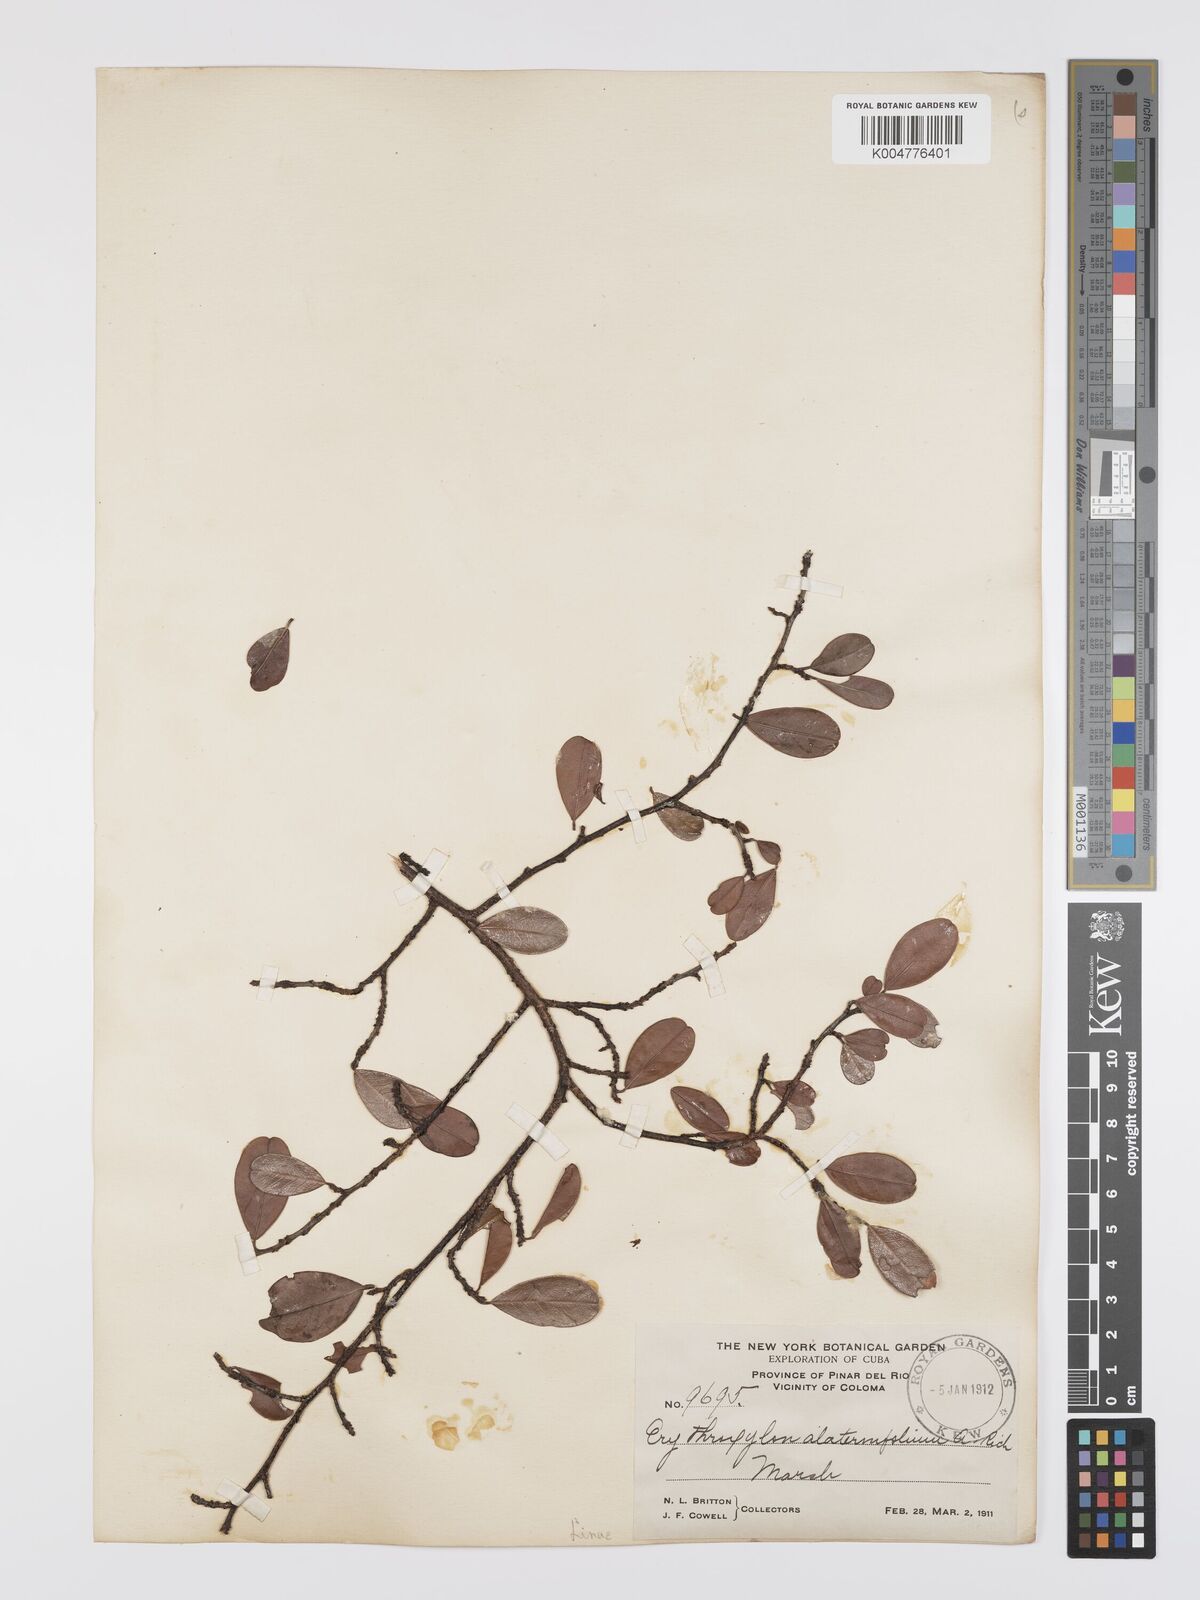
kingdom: Plantae
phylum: Tracheophyta
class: Magnoliopsida
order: Malpighiales
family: Erythroxylaceae
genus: Erythroxylum
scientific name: Erythroxylum alaternifolium
